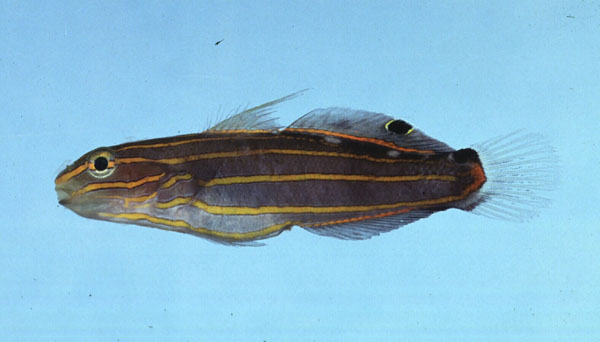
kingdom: Animalia
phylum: Chordata
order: Perciformes
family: Gobiidae
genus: Koumansetta
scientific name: Koumansetta rainfordi
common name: Old glory
